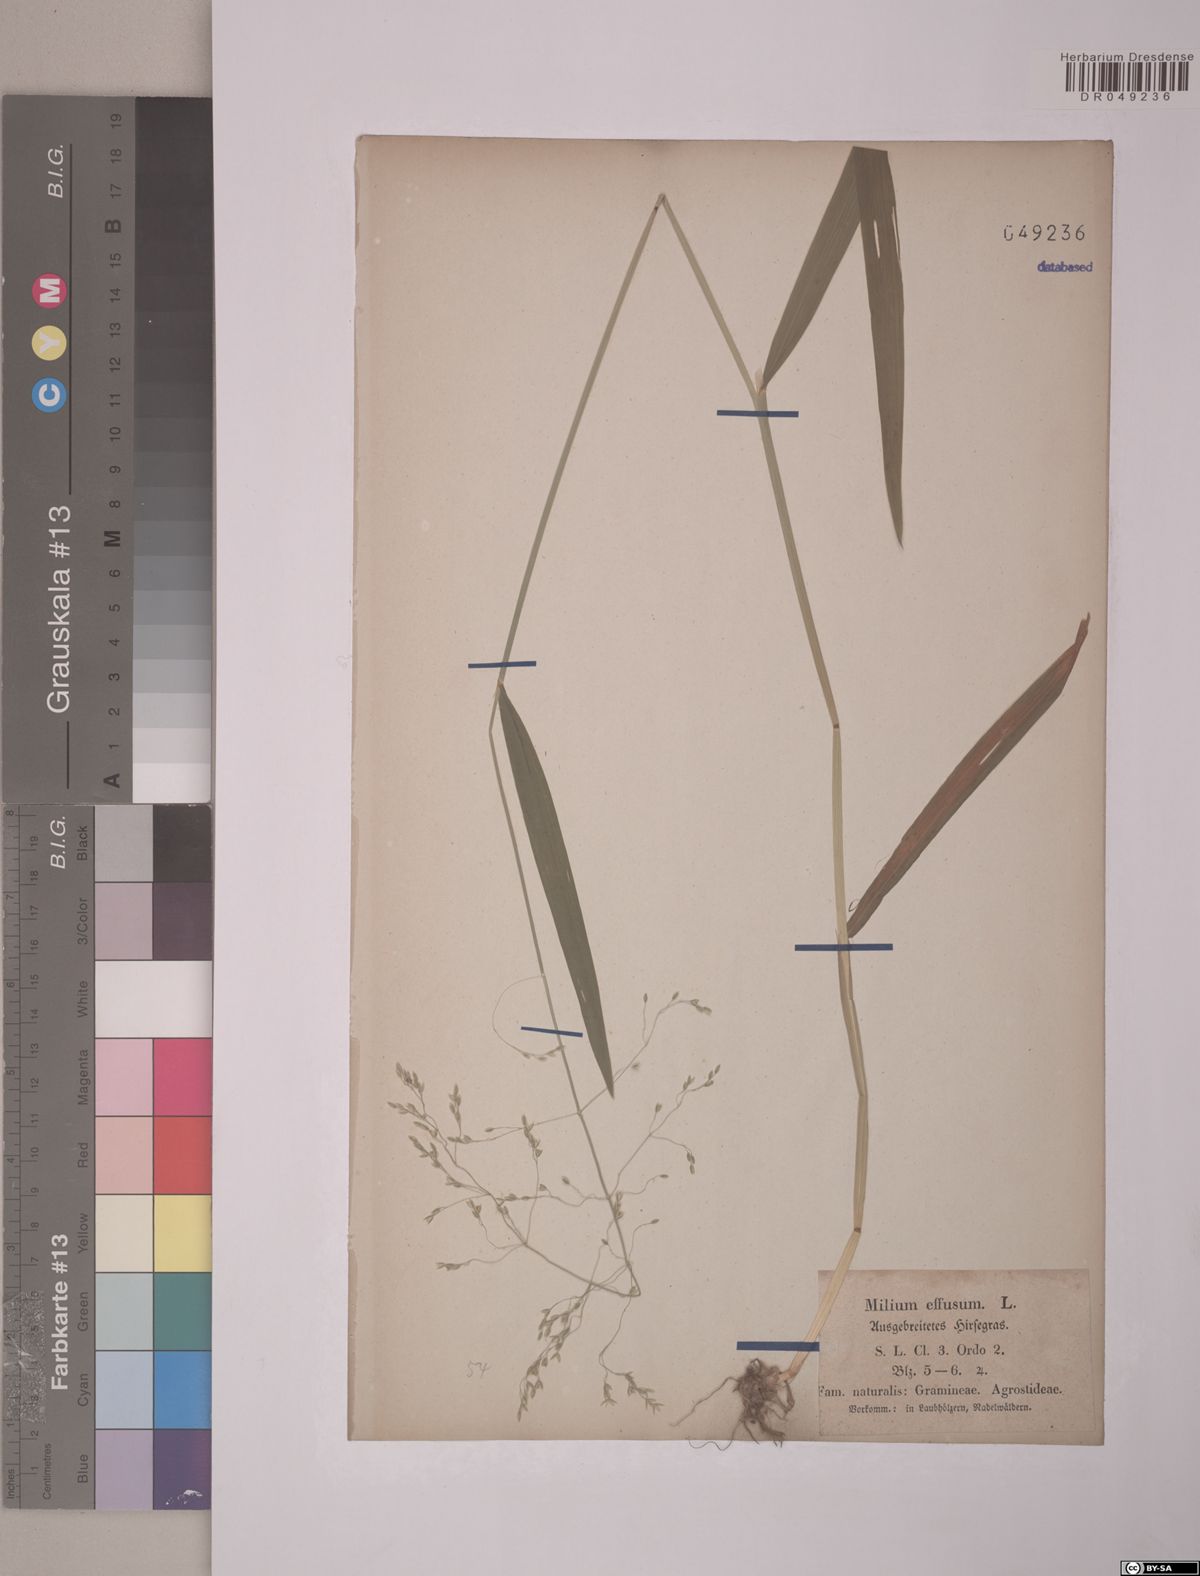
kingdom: Plantae
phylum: Tracheophyta
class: Liliopsida
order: Poales
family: Poaceae
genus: Milium
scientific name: Milium effusum
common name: Wood millet
